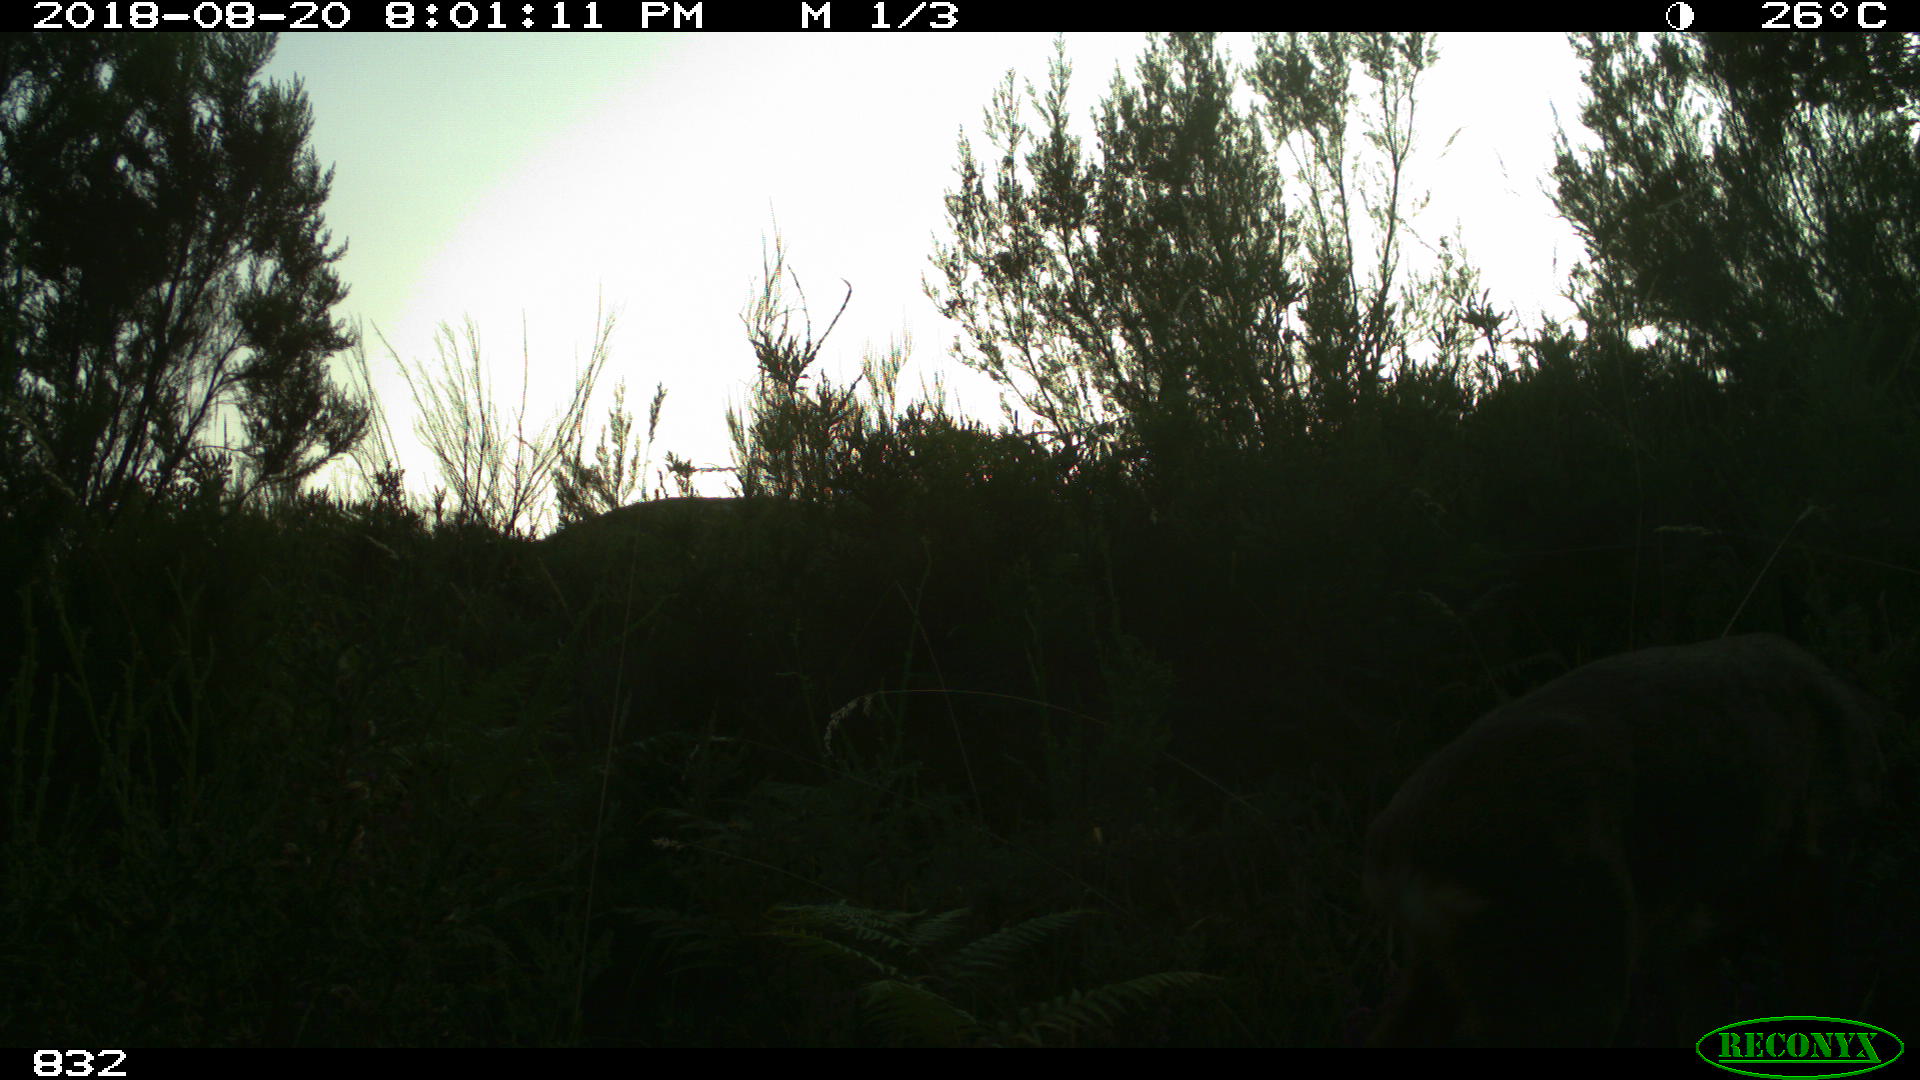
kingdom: Animalia
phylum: Chordata
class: Mammalia
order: Artiodactyla
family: Cervidae
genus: Capreolus
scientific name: Capreolus capreolus
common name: Western roe deer
